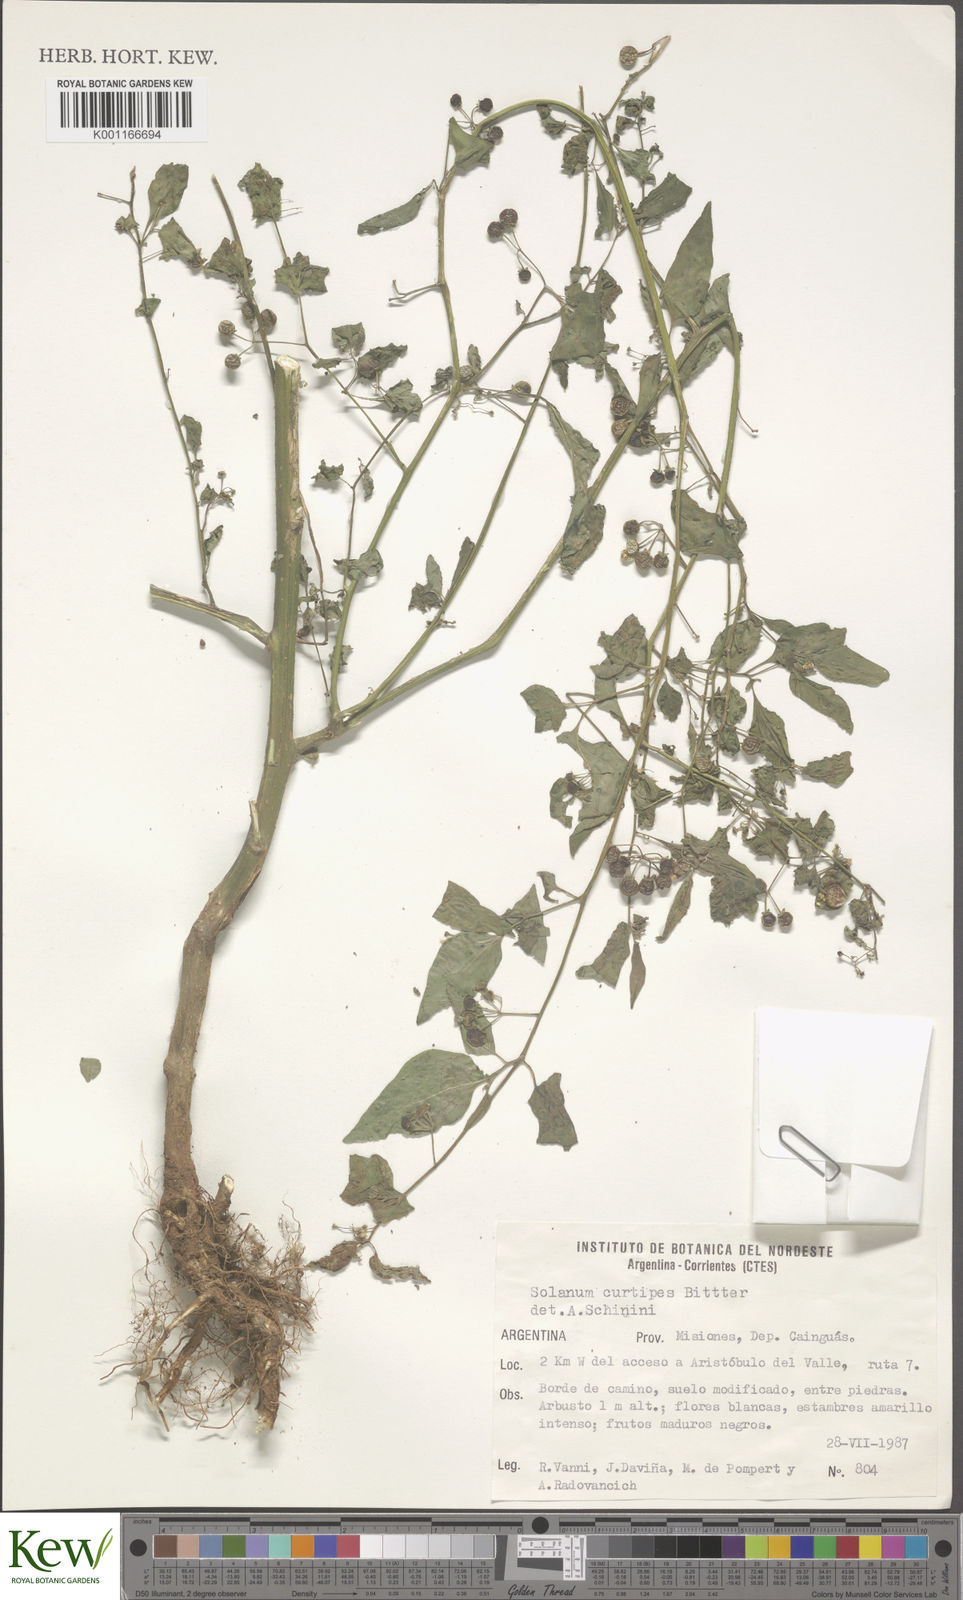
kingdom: Plantae
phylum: Tracheophyta
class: Magnoliopsida
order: Solanales
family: Solanaceae
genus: Solanum
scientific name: Solanum americanum
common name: American black nightshade
